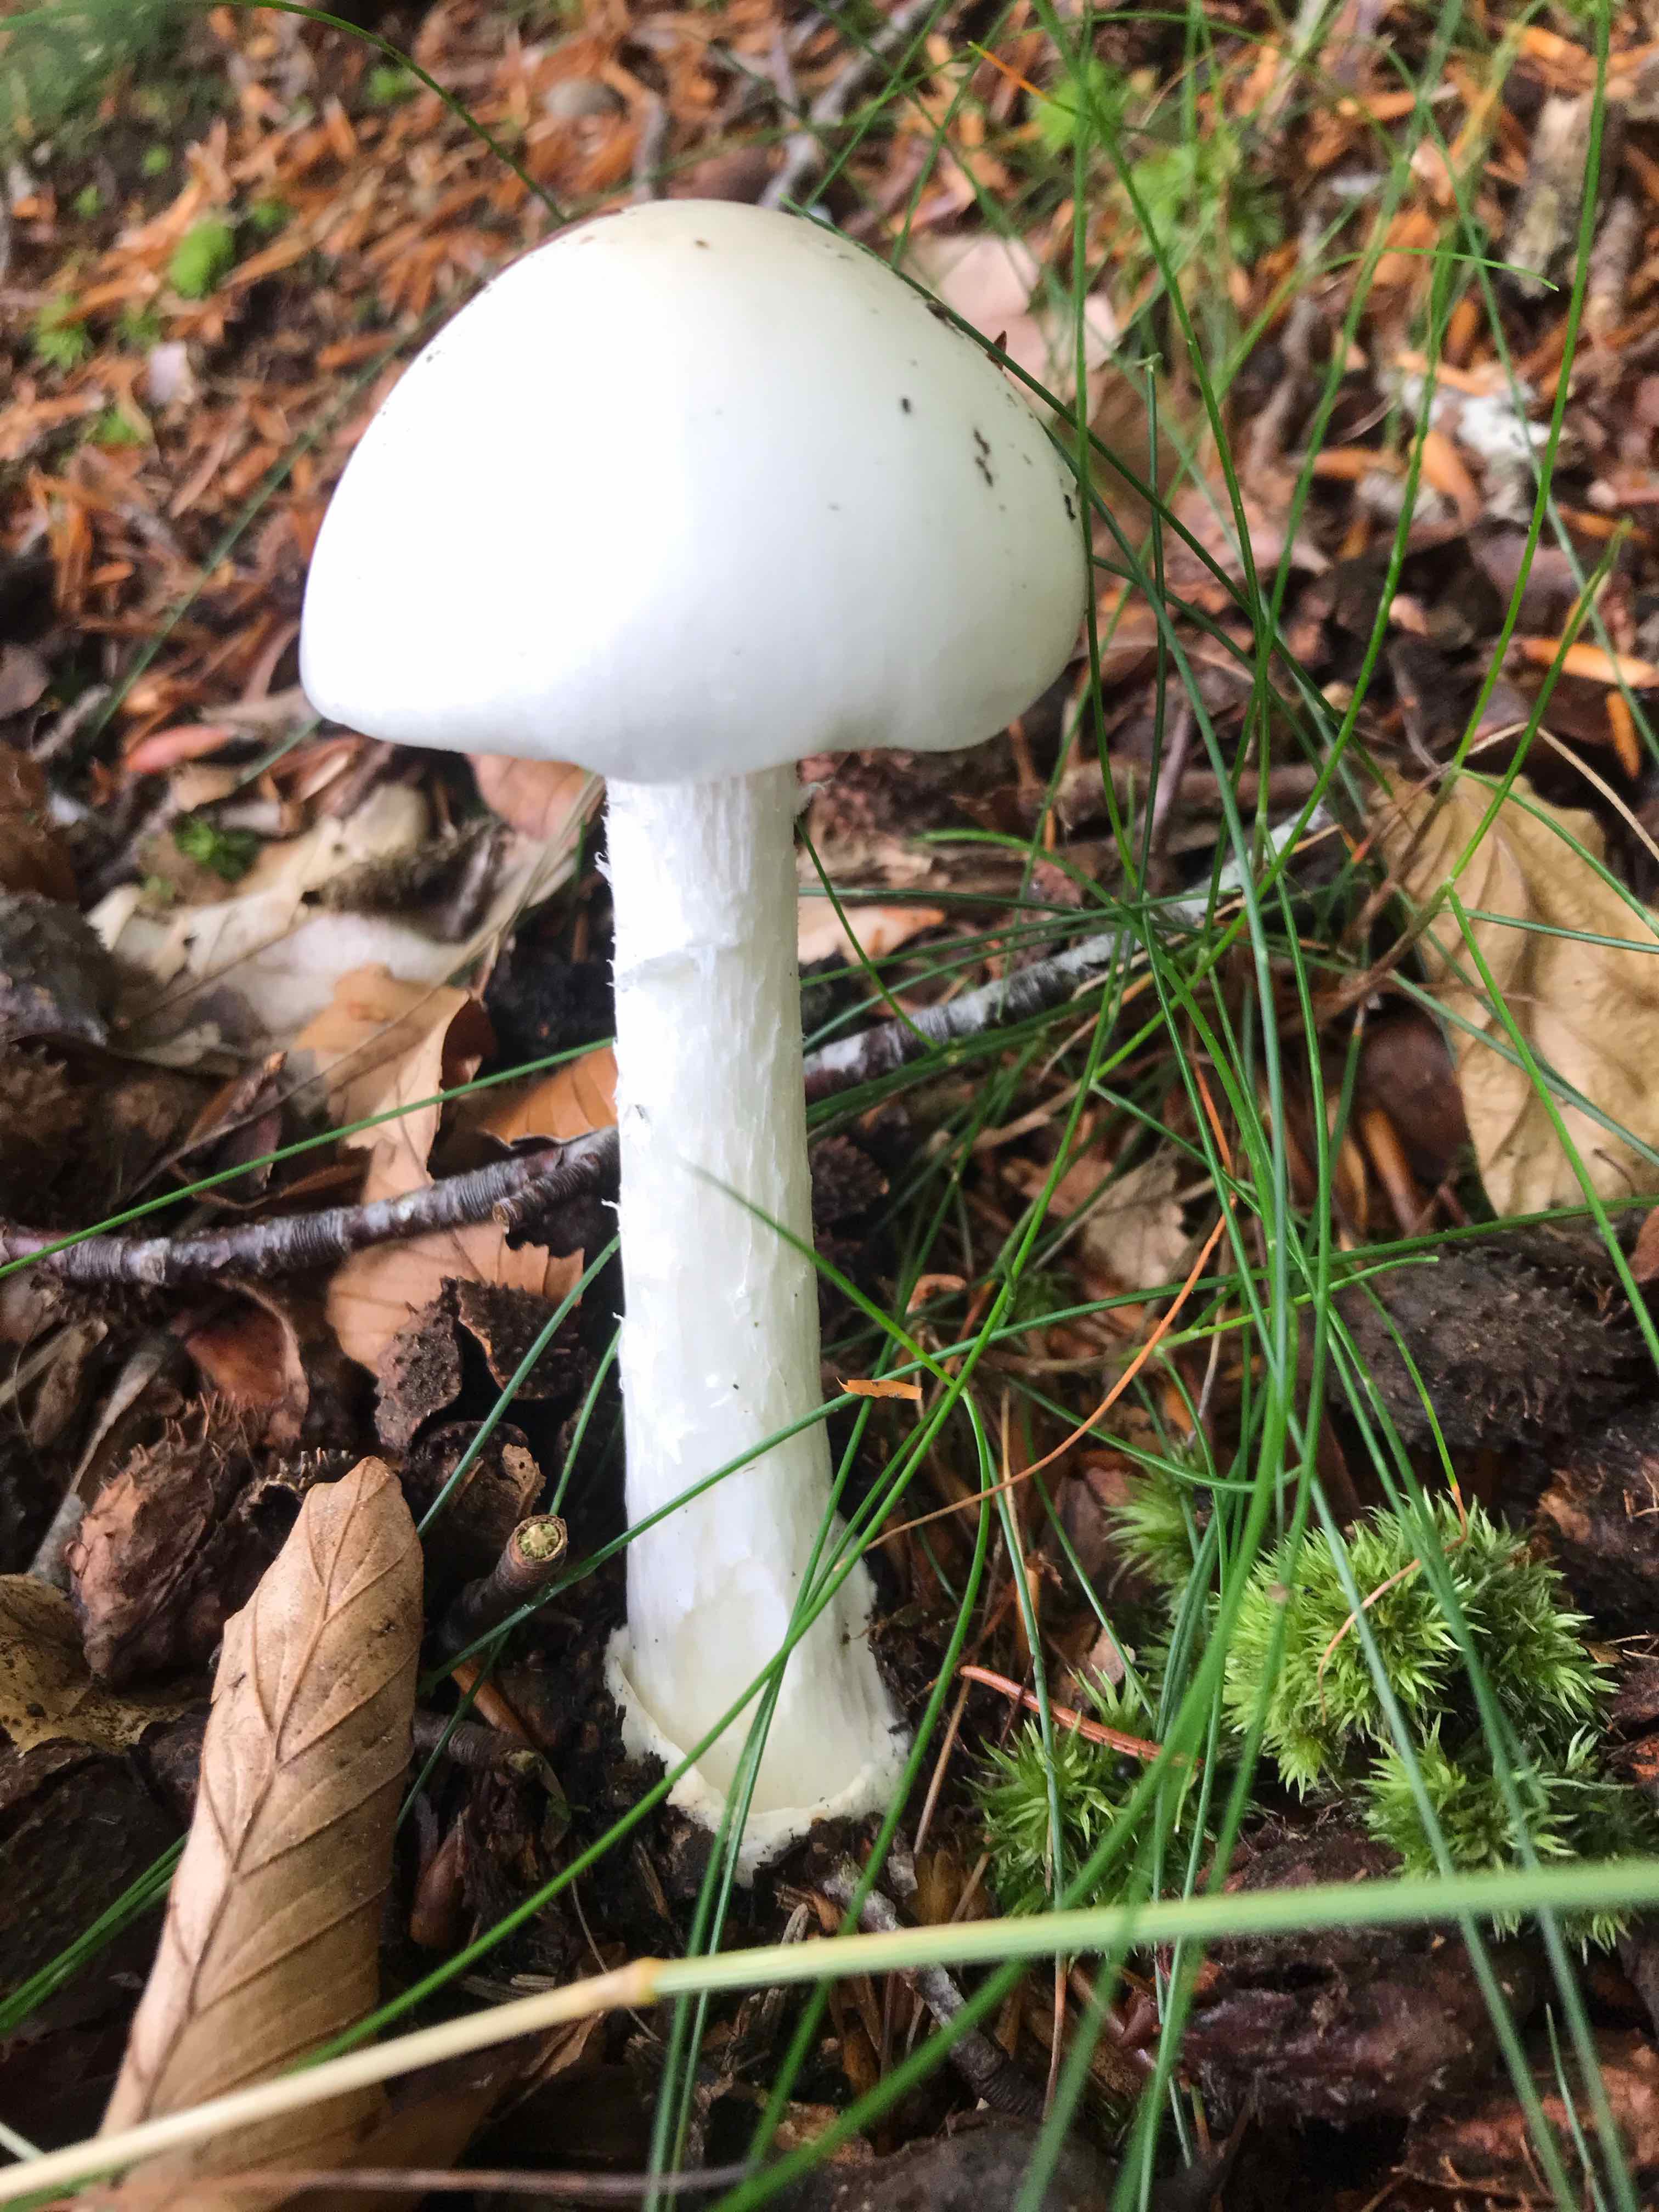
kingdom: Fungi
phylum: Basidiomycota
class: Agaricomycetes
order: Agaricales
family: Amanitaceae
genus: Amanita
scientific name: Amanita virosa
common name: snehvid fluesvamp
